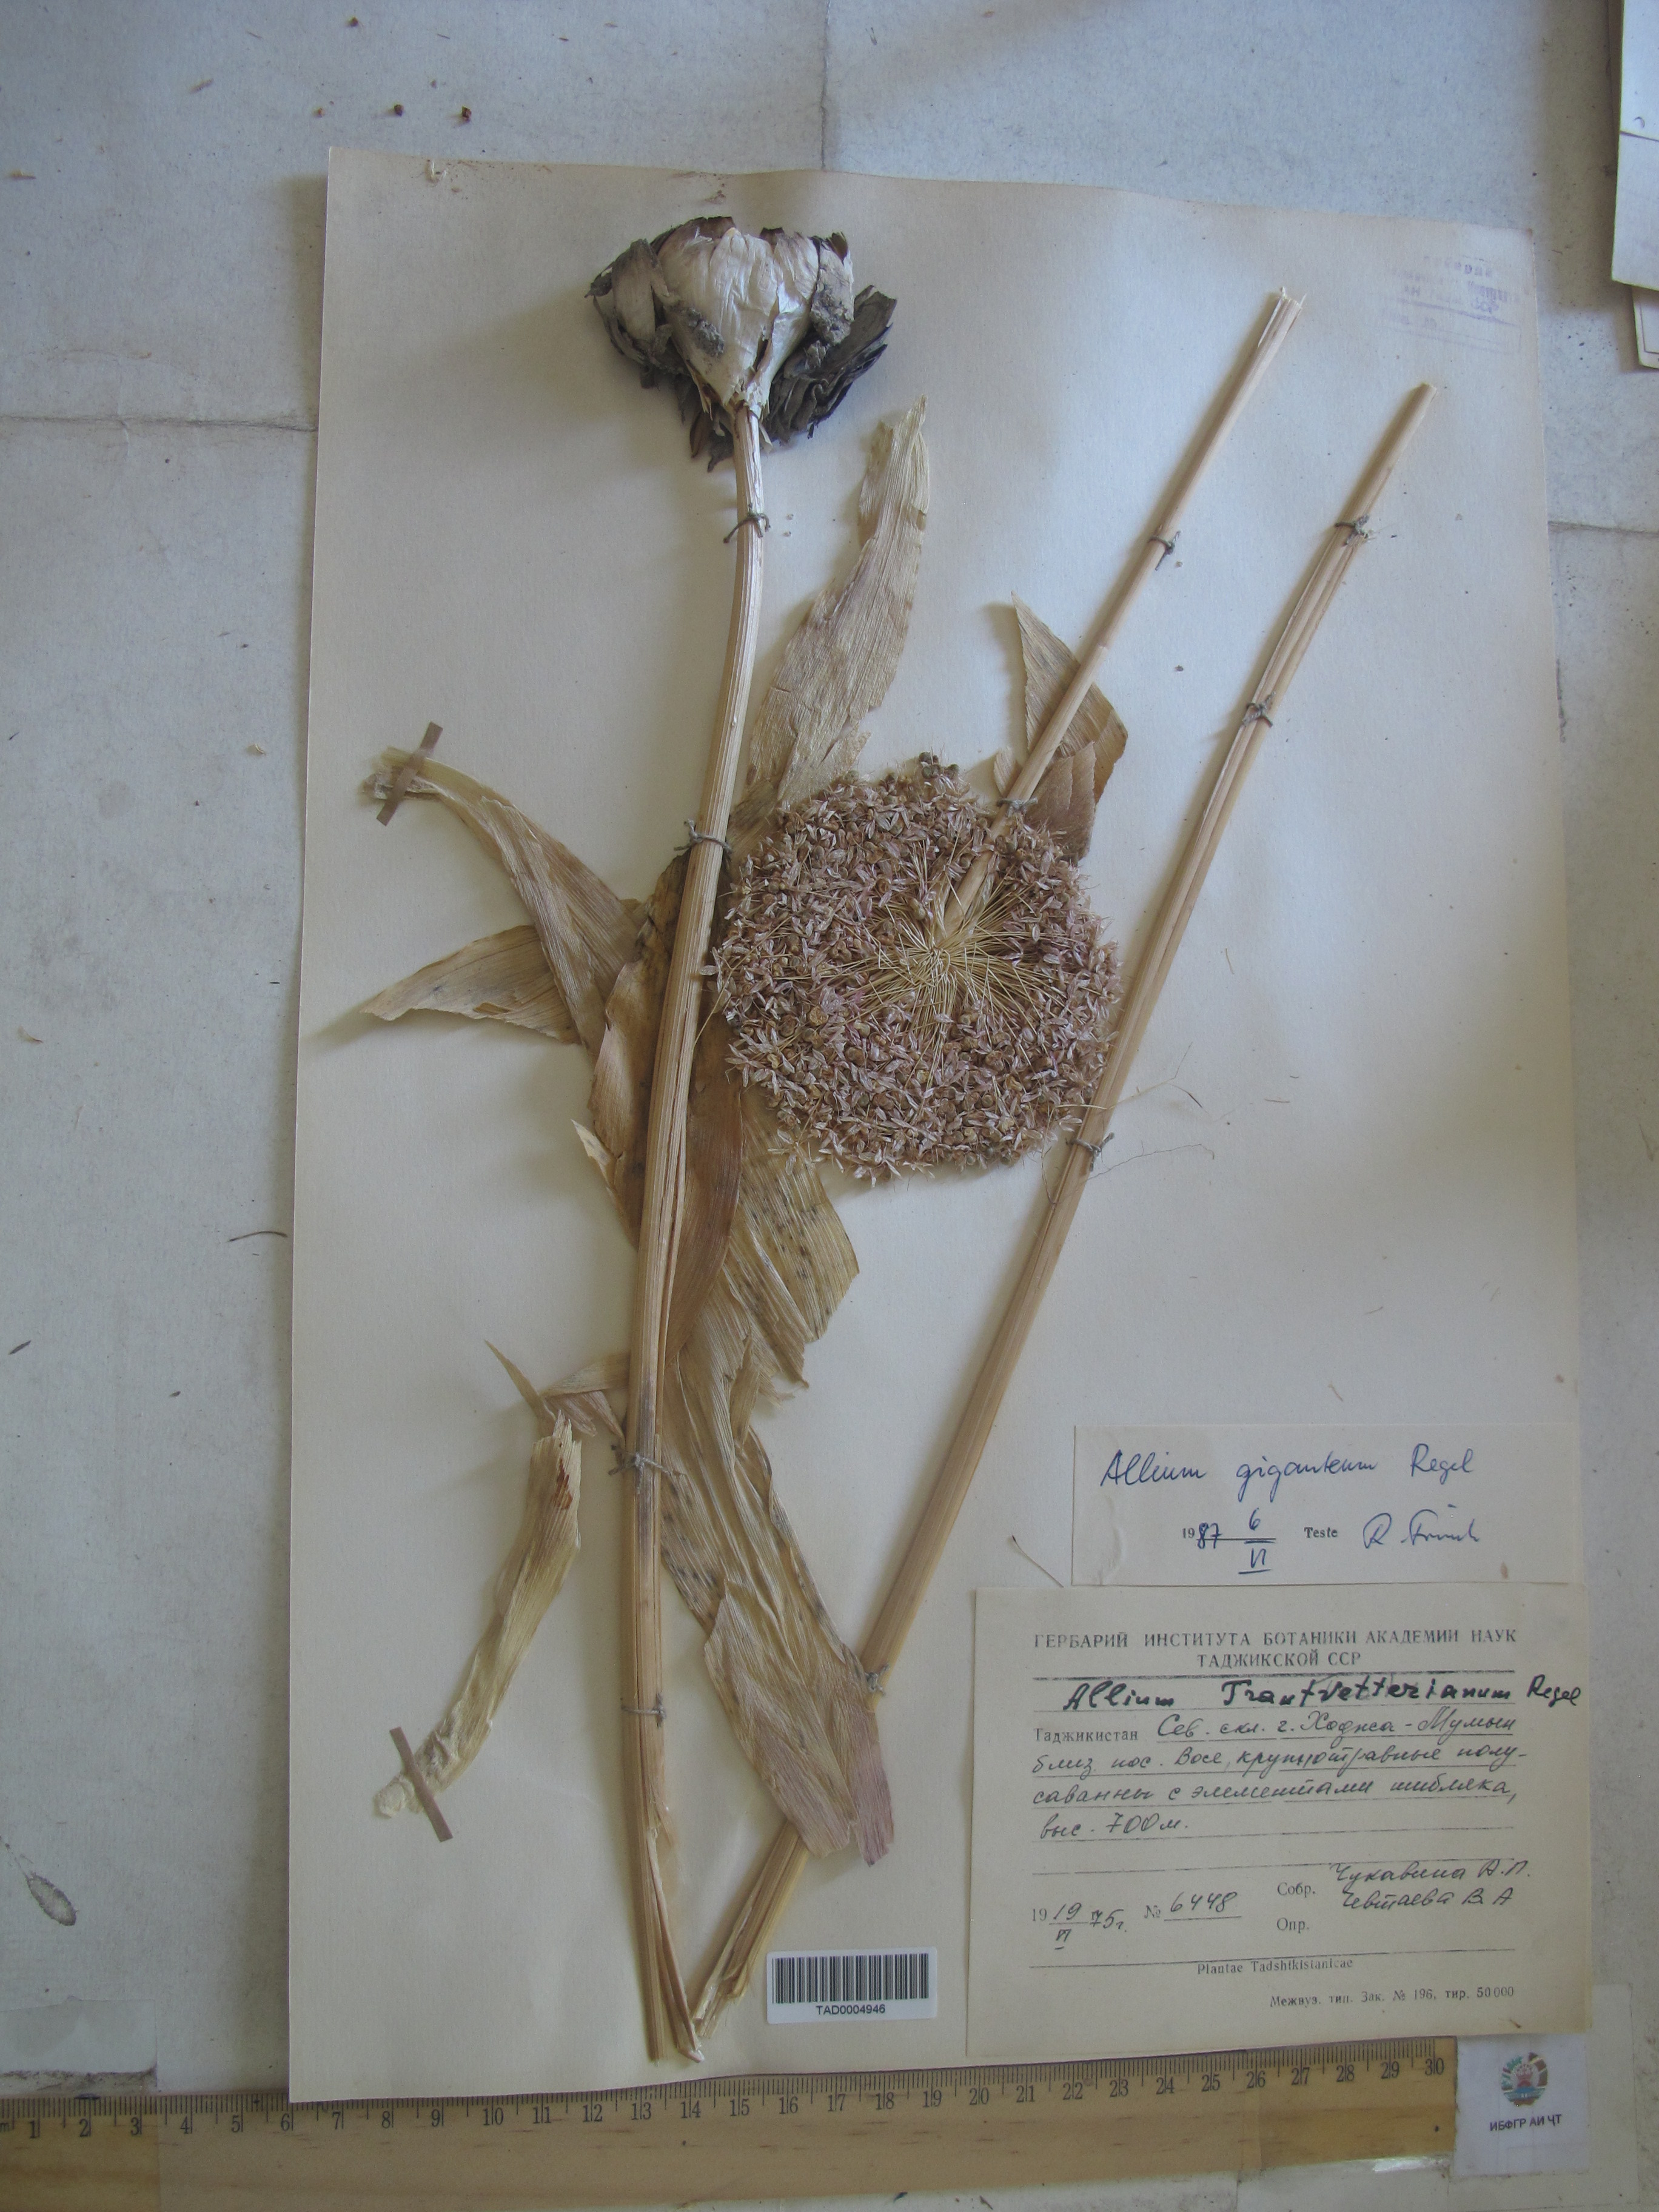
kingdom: Plantae
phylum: Tracheophyta
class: Liliopsida
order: Asparagales
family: Amaryllidaceae
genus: Allium
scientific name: Allium giganteum
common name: Giant onion
